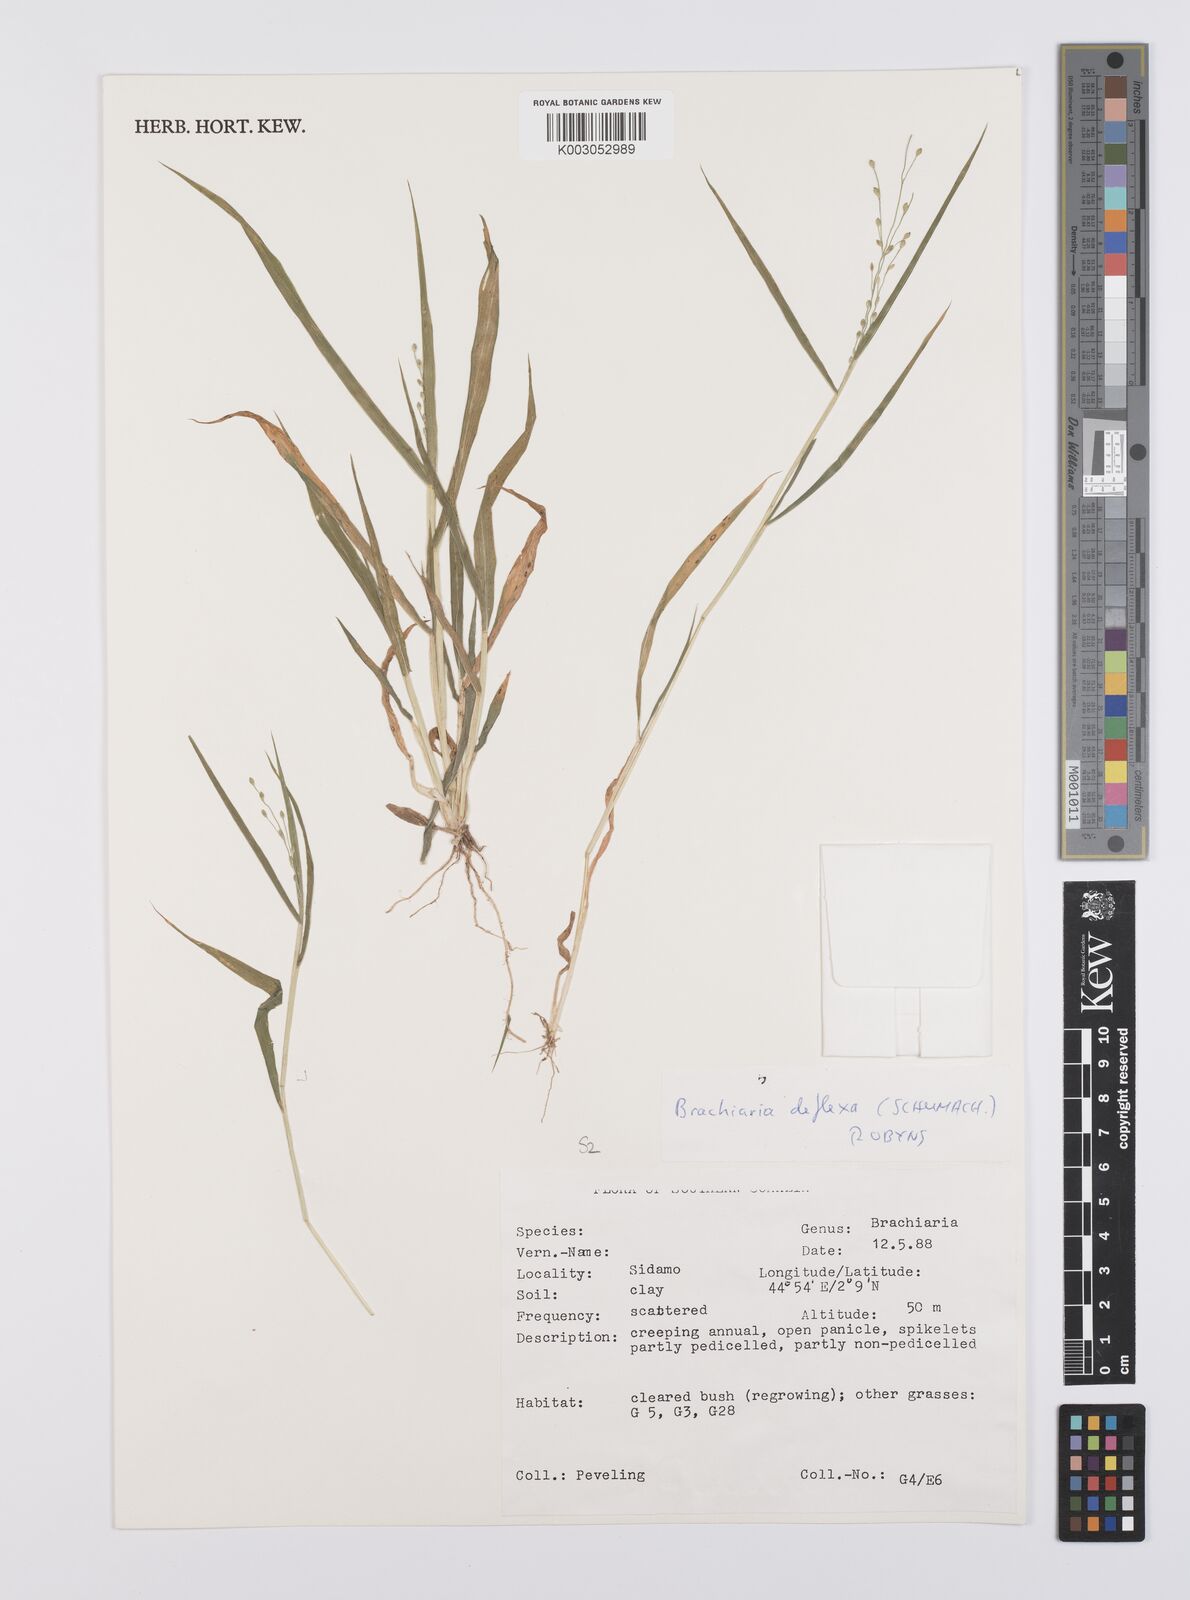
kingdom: Plantae
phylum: Tracheophyta
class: Liliopsida
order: Poales
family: Poaceae
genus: Urochloa
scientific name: Urochloa deflexa
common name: Guinea millet
